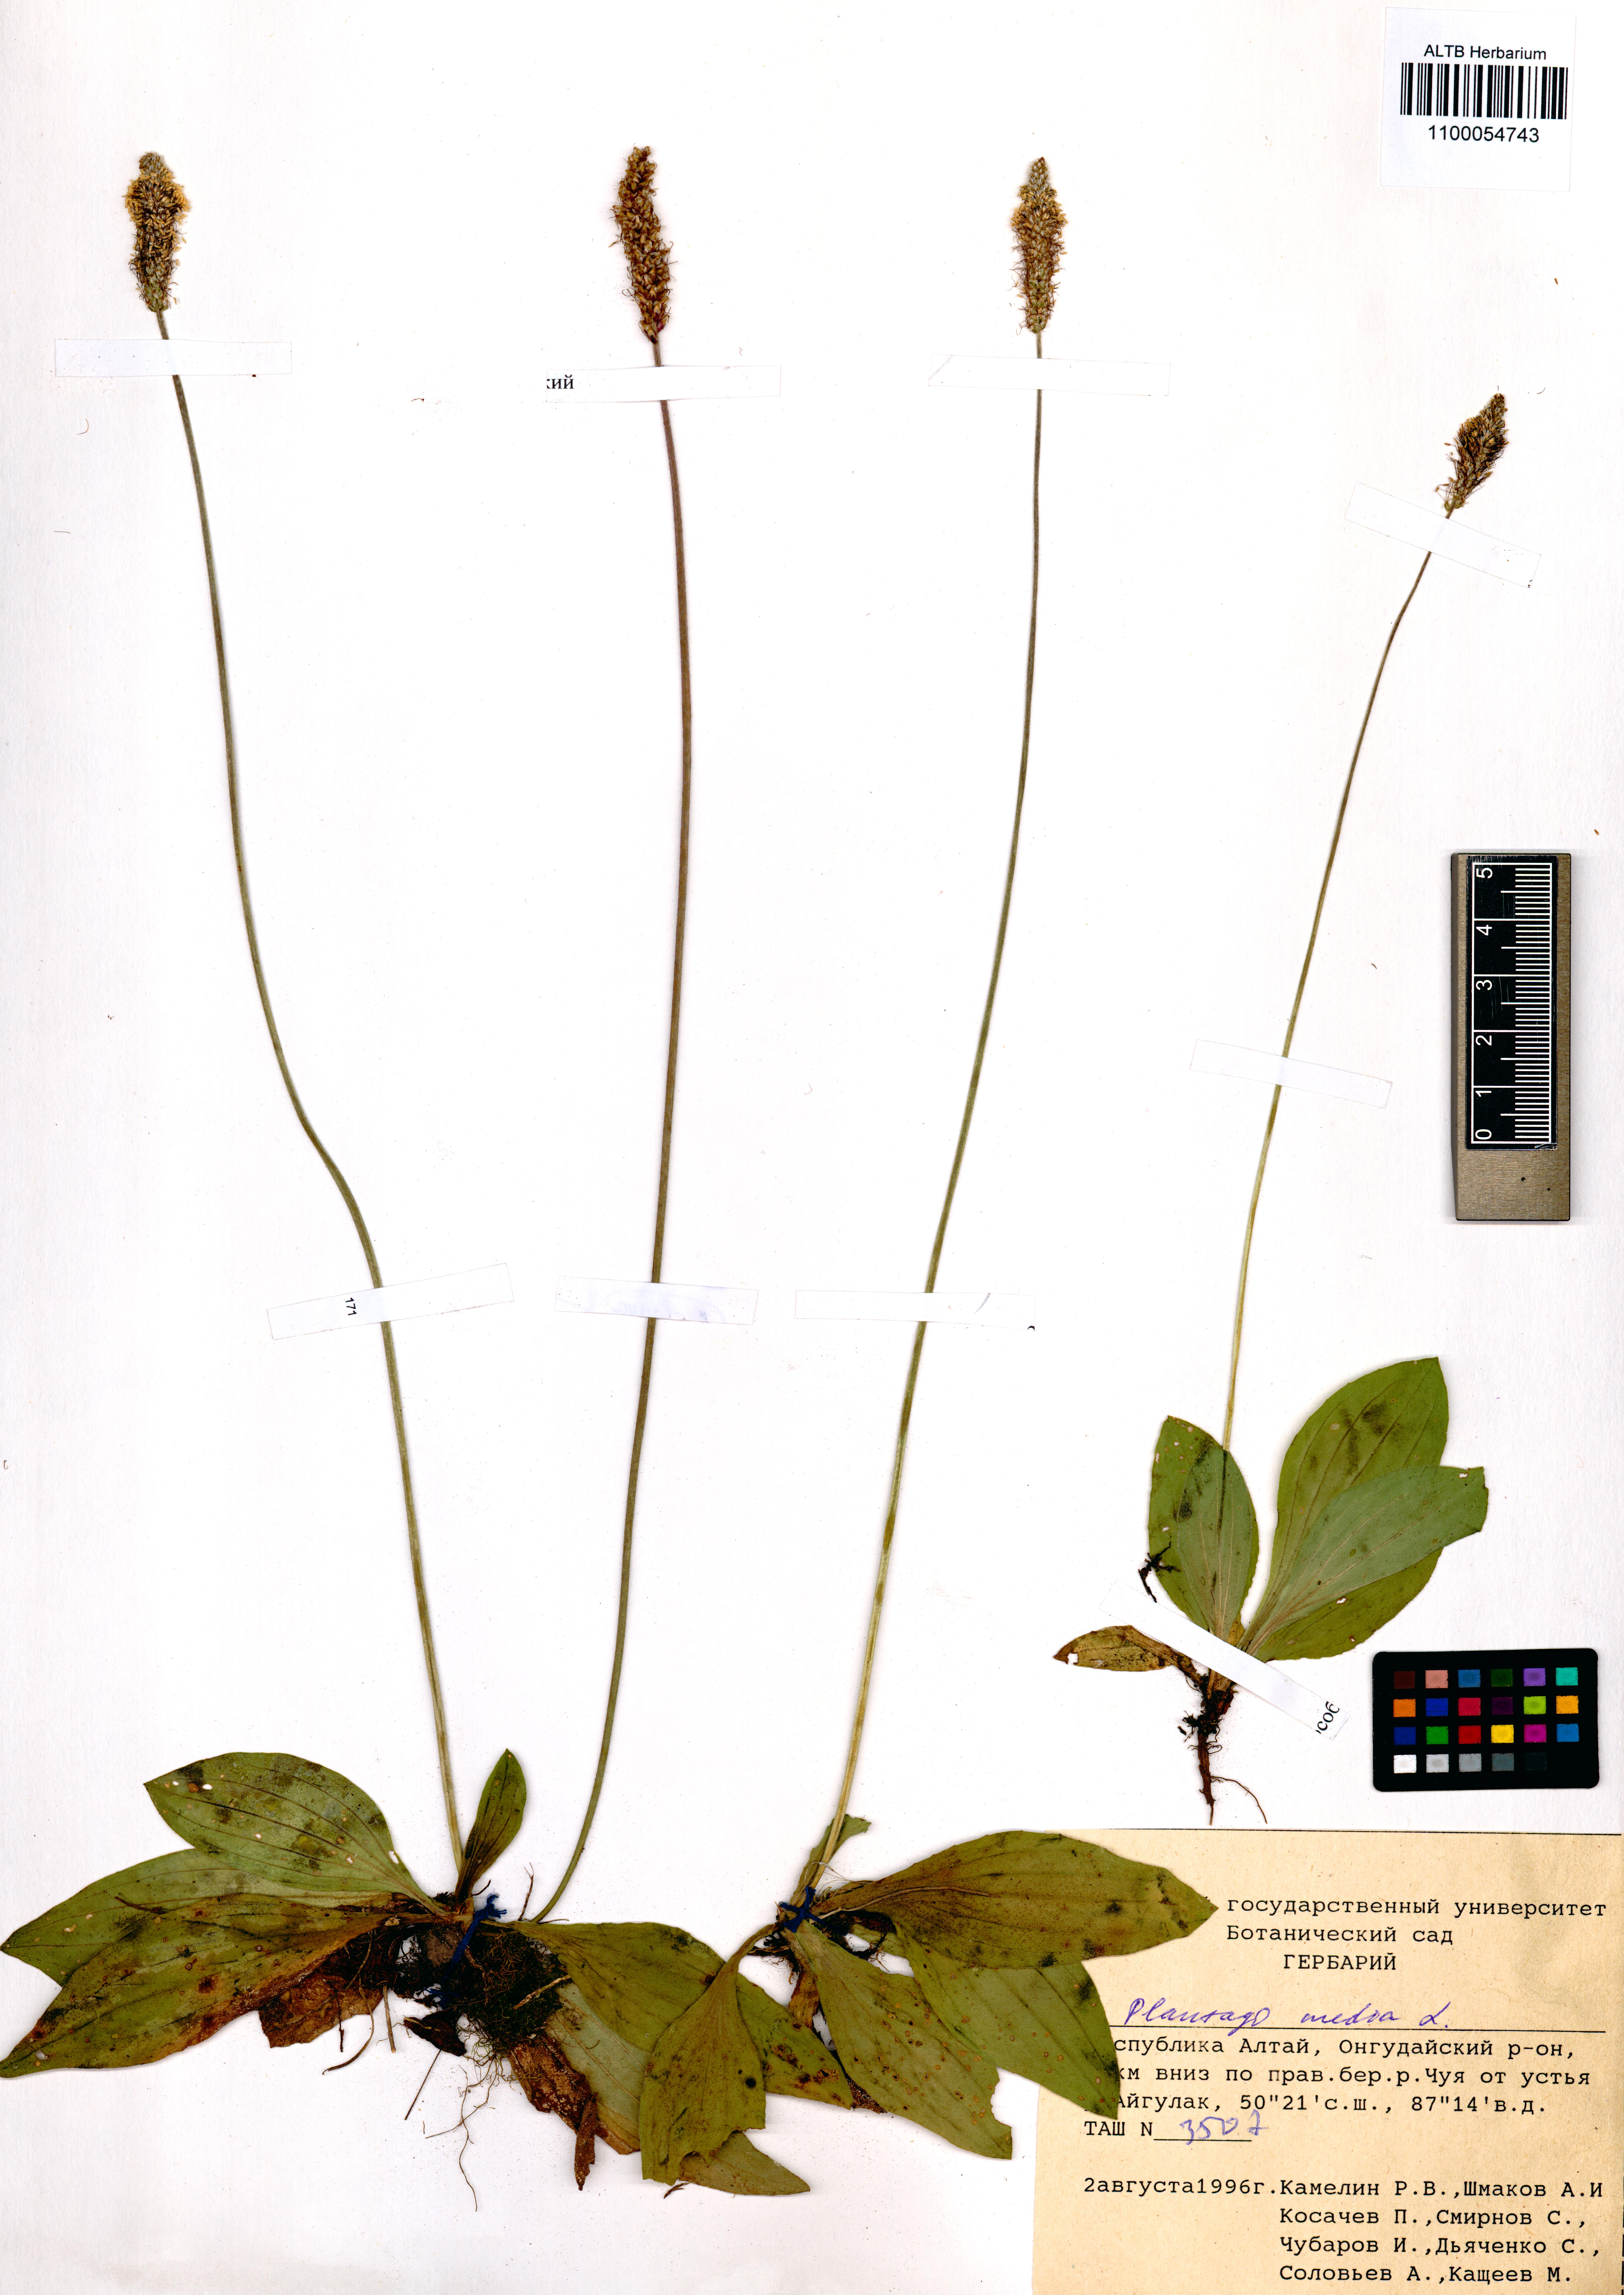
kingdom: Plantae
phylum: Tracheophyta
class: Magnoliopsida
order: Lamiales
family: Plantaginaceae
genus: Plantago
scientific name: Plantago media
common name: Hoary plantain
